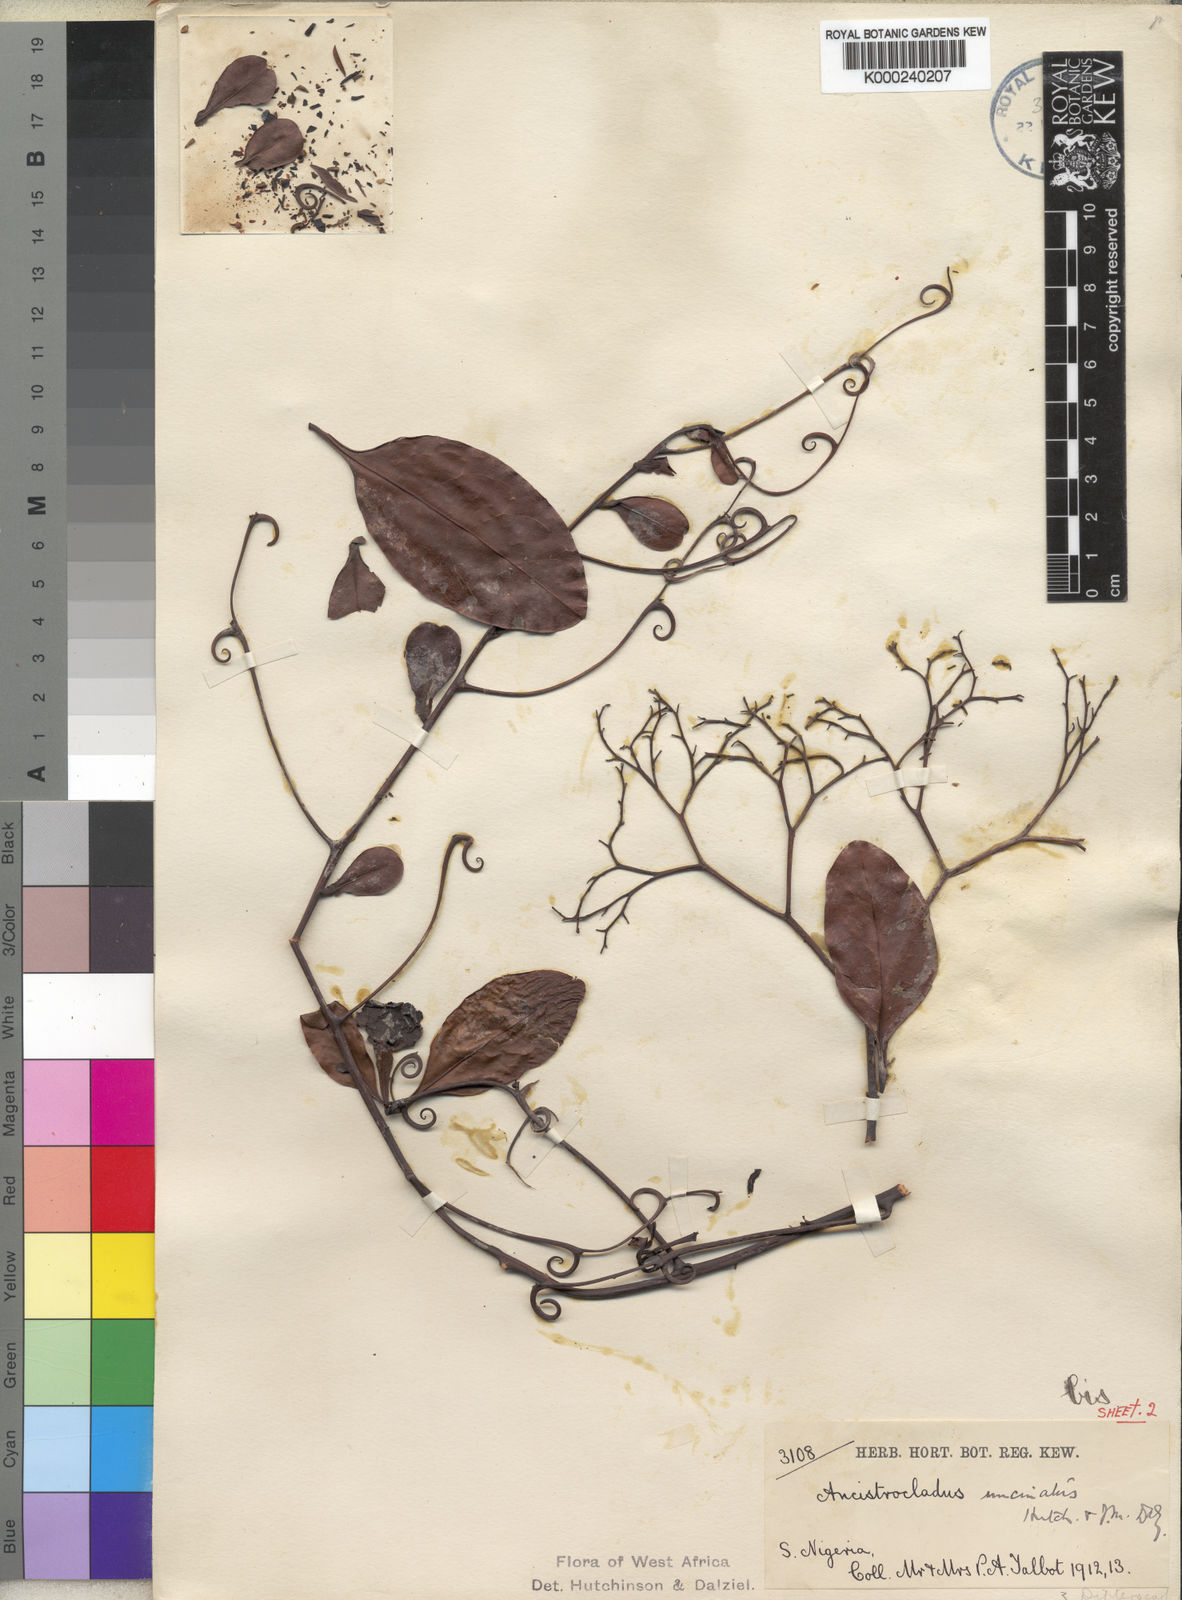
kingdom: Plantae
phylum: Tracheophyta
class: Magnoliopsida
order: Caryophyllales
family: Ancistrocladaceae
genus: Ancistrocladus
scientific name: Ancistrocladus guineensis
